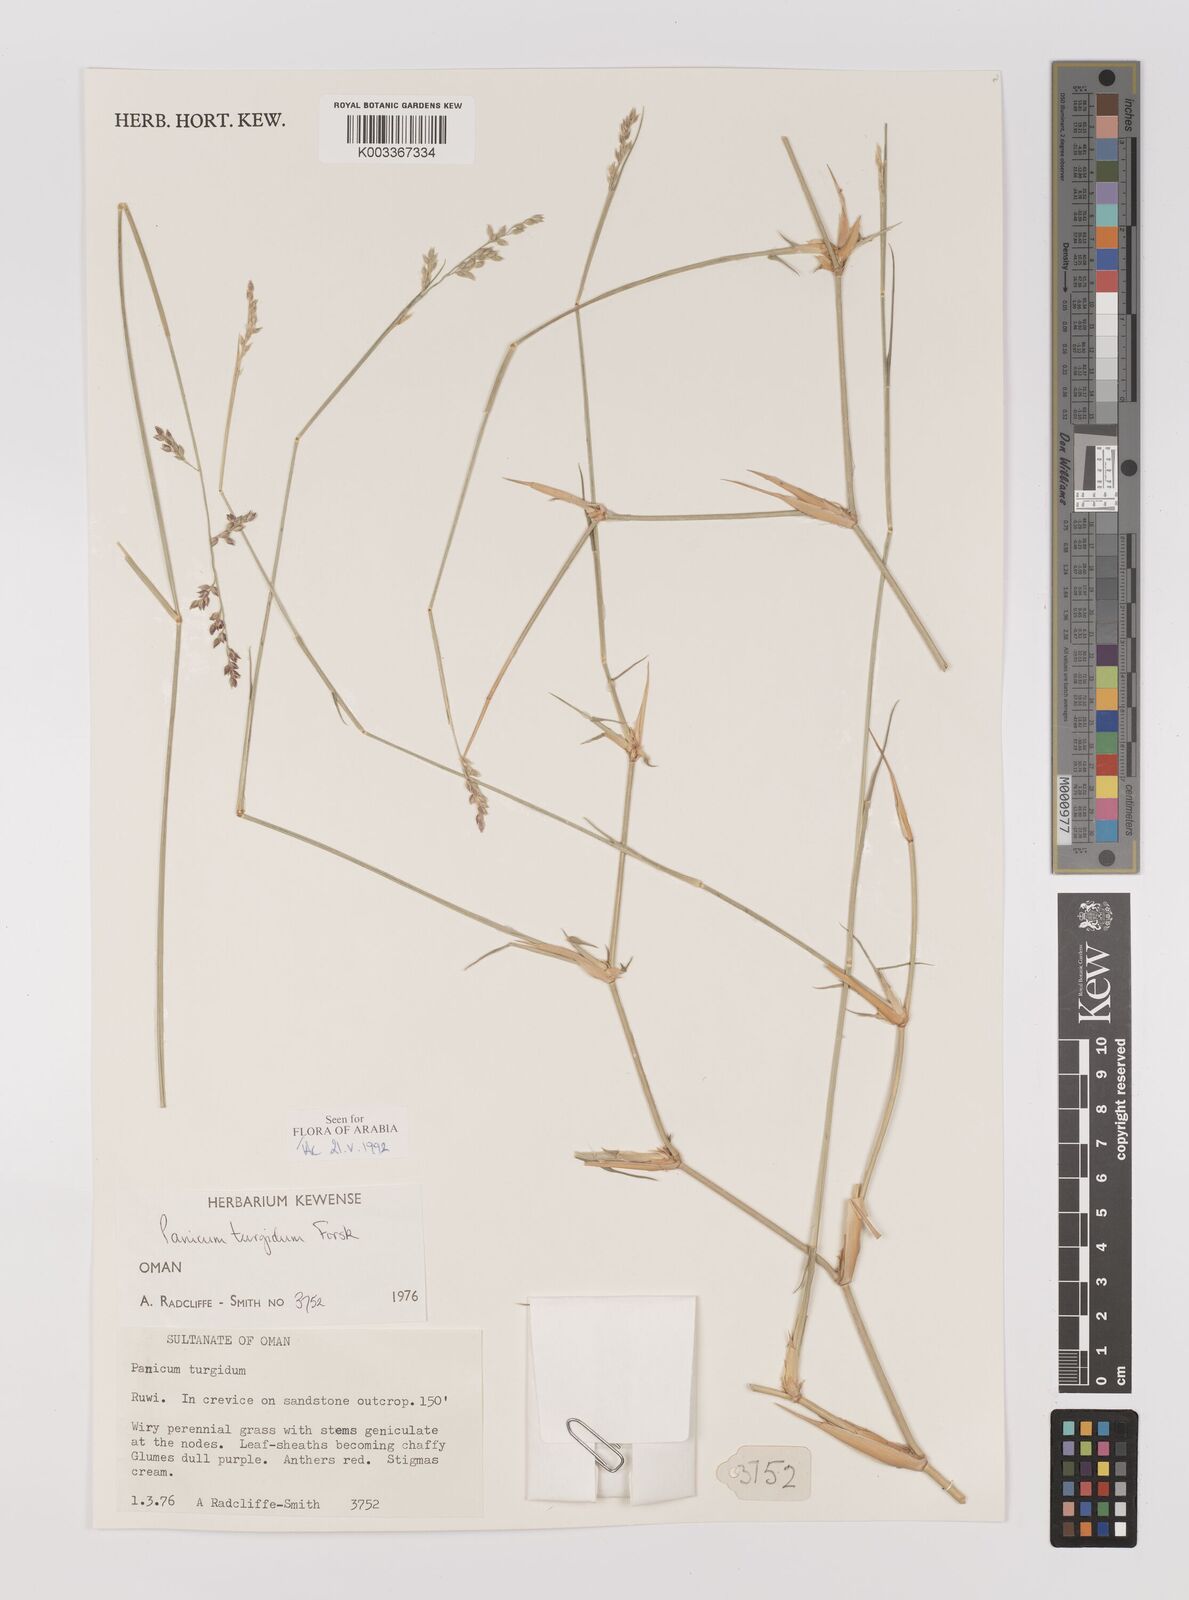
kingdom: Plantae
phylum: Tracheophyta
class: Liliopsida
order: Poales
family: Poaceae
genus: Panicum
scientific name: Panicum turgidum
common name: Desert grass
